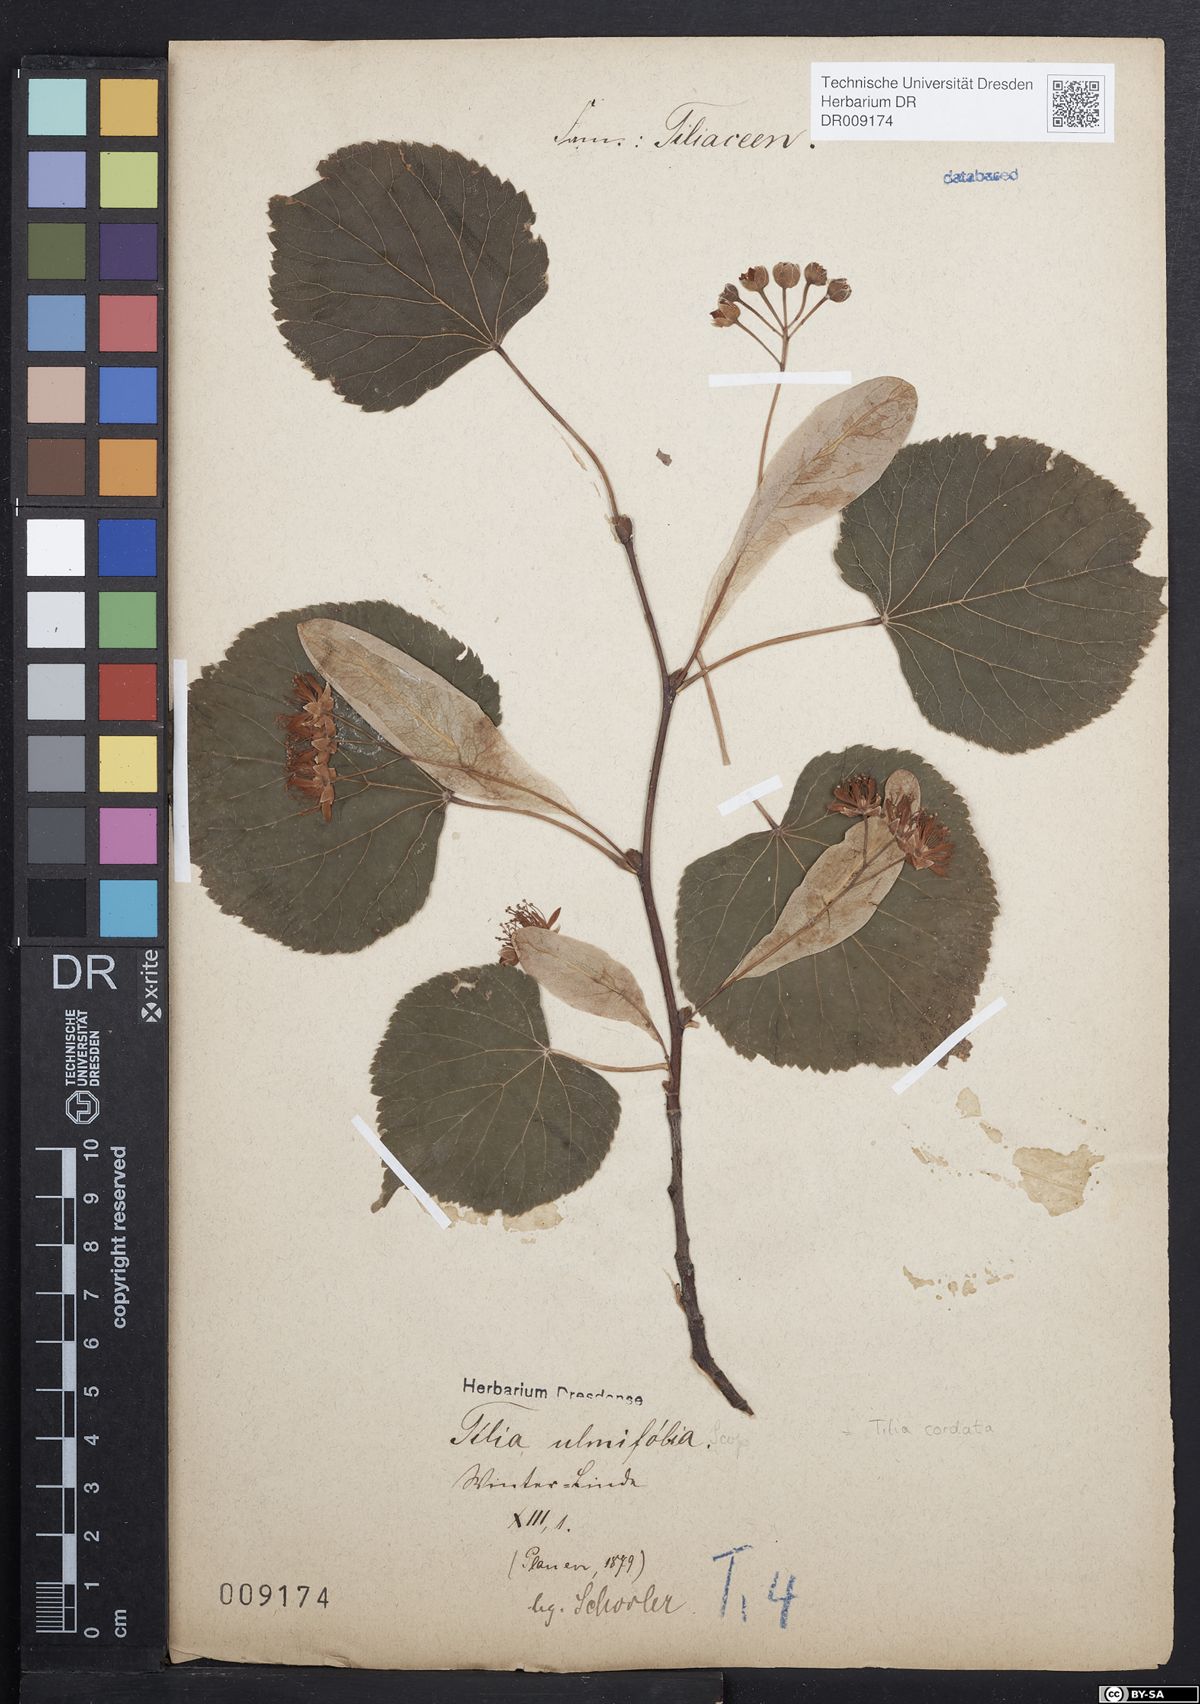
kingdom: Plantae
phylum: Tracheophyta
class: Magnoliopsida
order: Malvales
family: Malvaceae
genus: Tilia
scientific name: Tilia cordata
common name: Small-leaved lime
